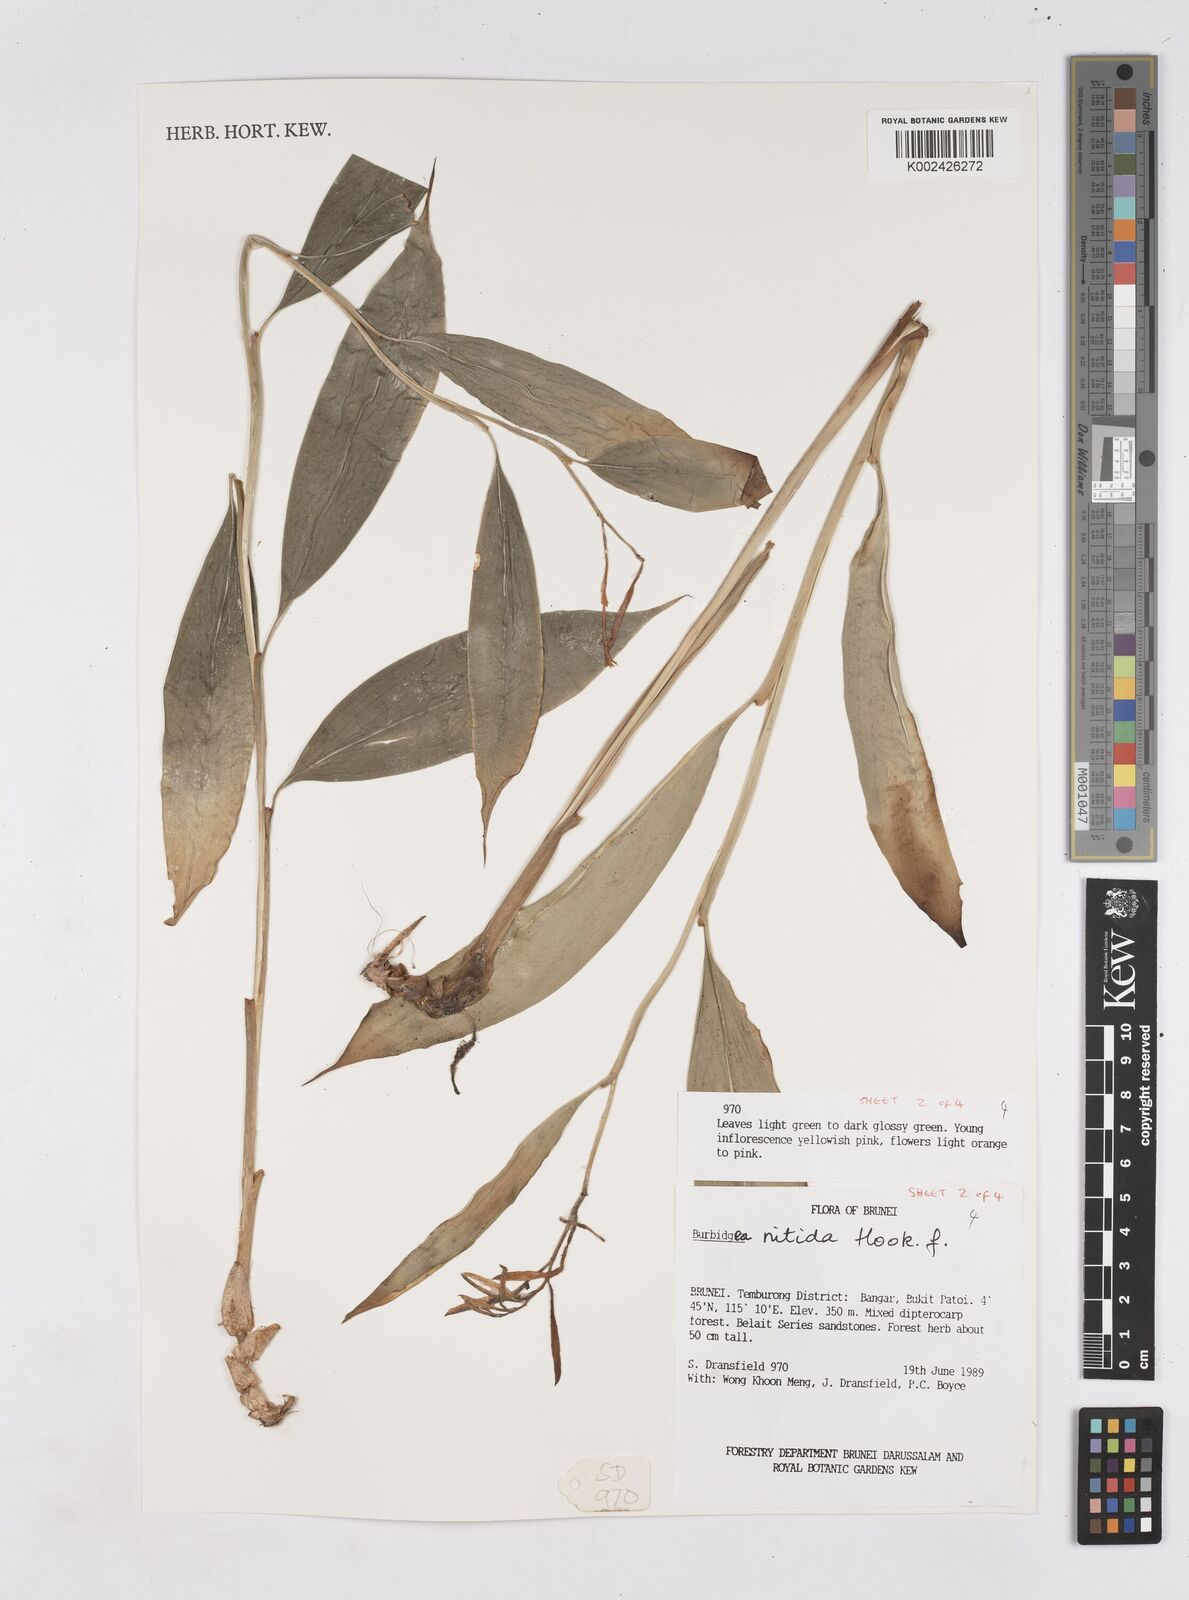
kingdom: Plantae
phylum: Tracheophyta
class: Liliopsida
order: Zingiberales
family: Zingiberaceae
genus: Burbidgea
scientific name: Burbidgea nitida
